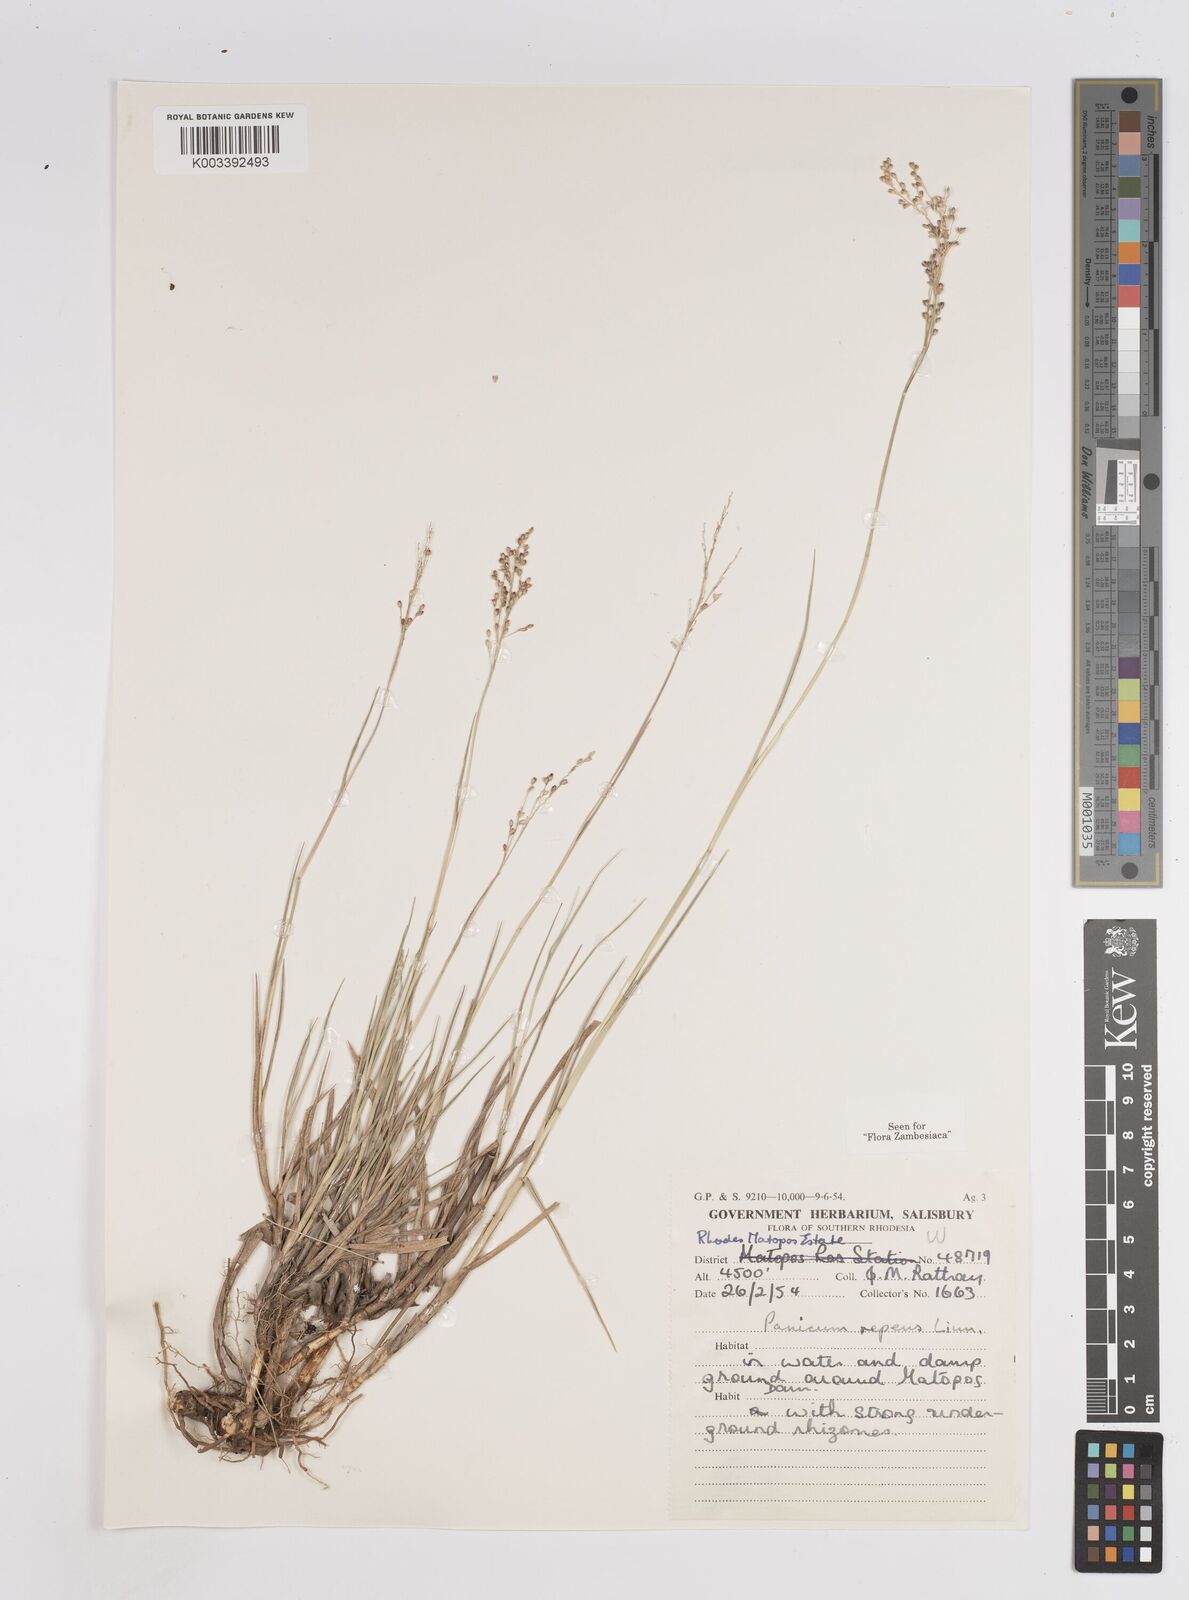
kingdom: Plantae
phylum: Tracheophyta
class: Liliopsida
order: Poales
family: Poaceae
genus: Panicum
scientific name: Panicum repens
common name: Torpedo grass
